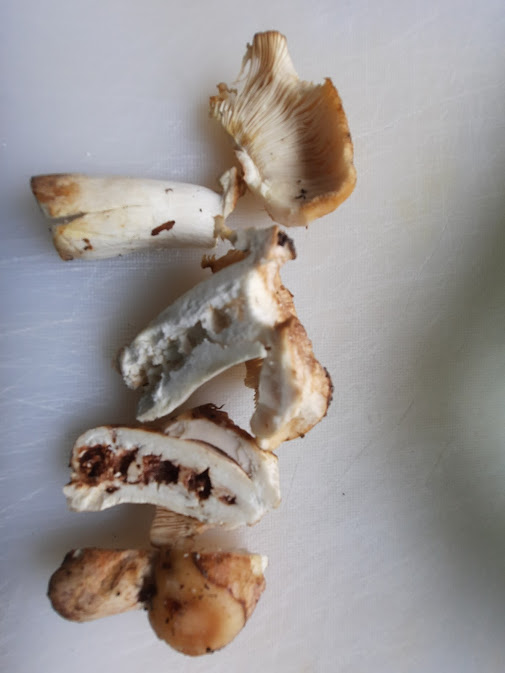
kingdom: Fungi
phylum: Basidiomycota
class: Agaricomycetes
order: Russulales
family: Russulaceae
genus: Russula
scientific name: Russula
